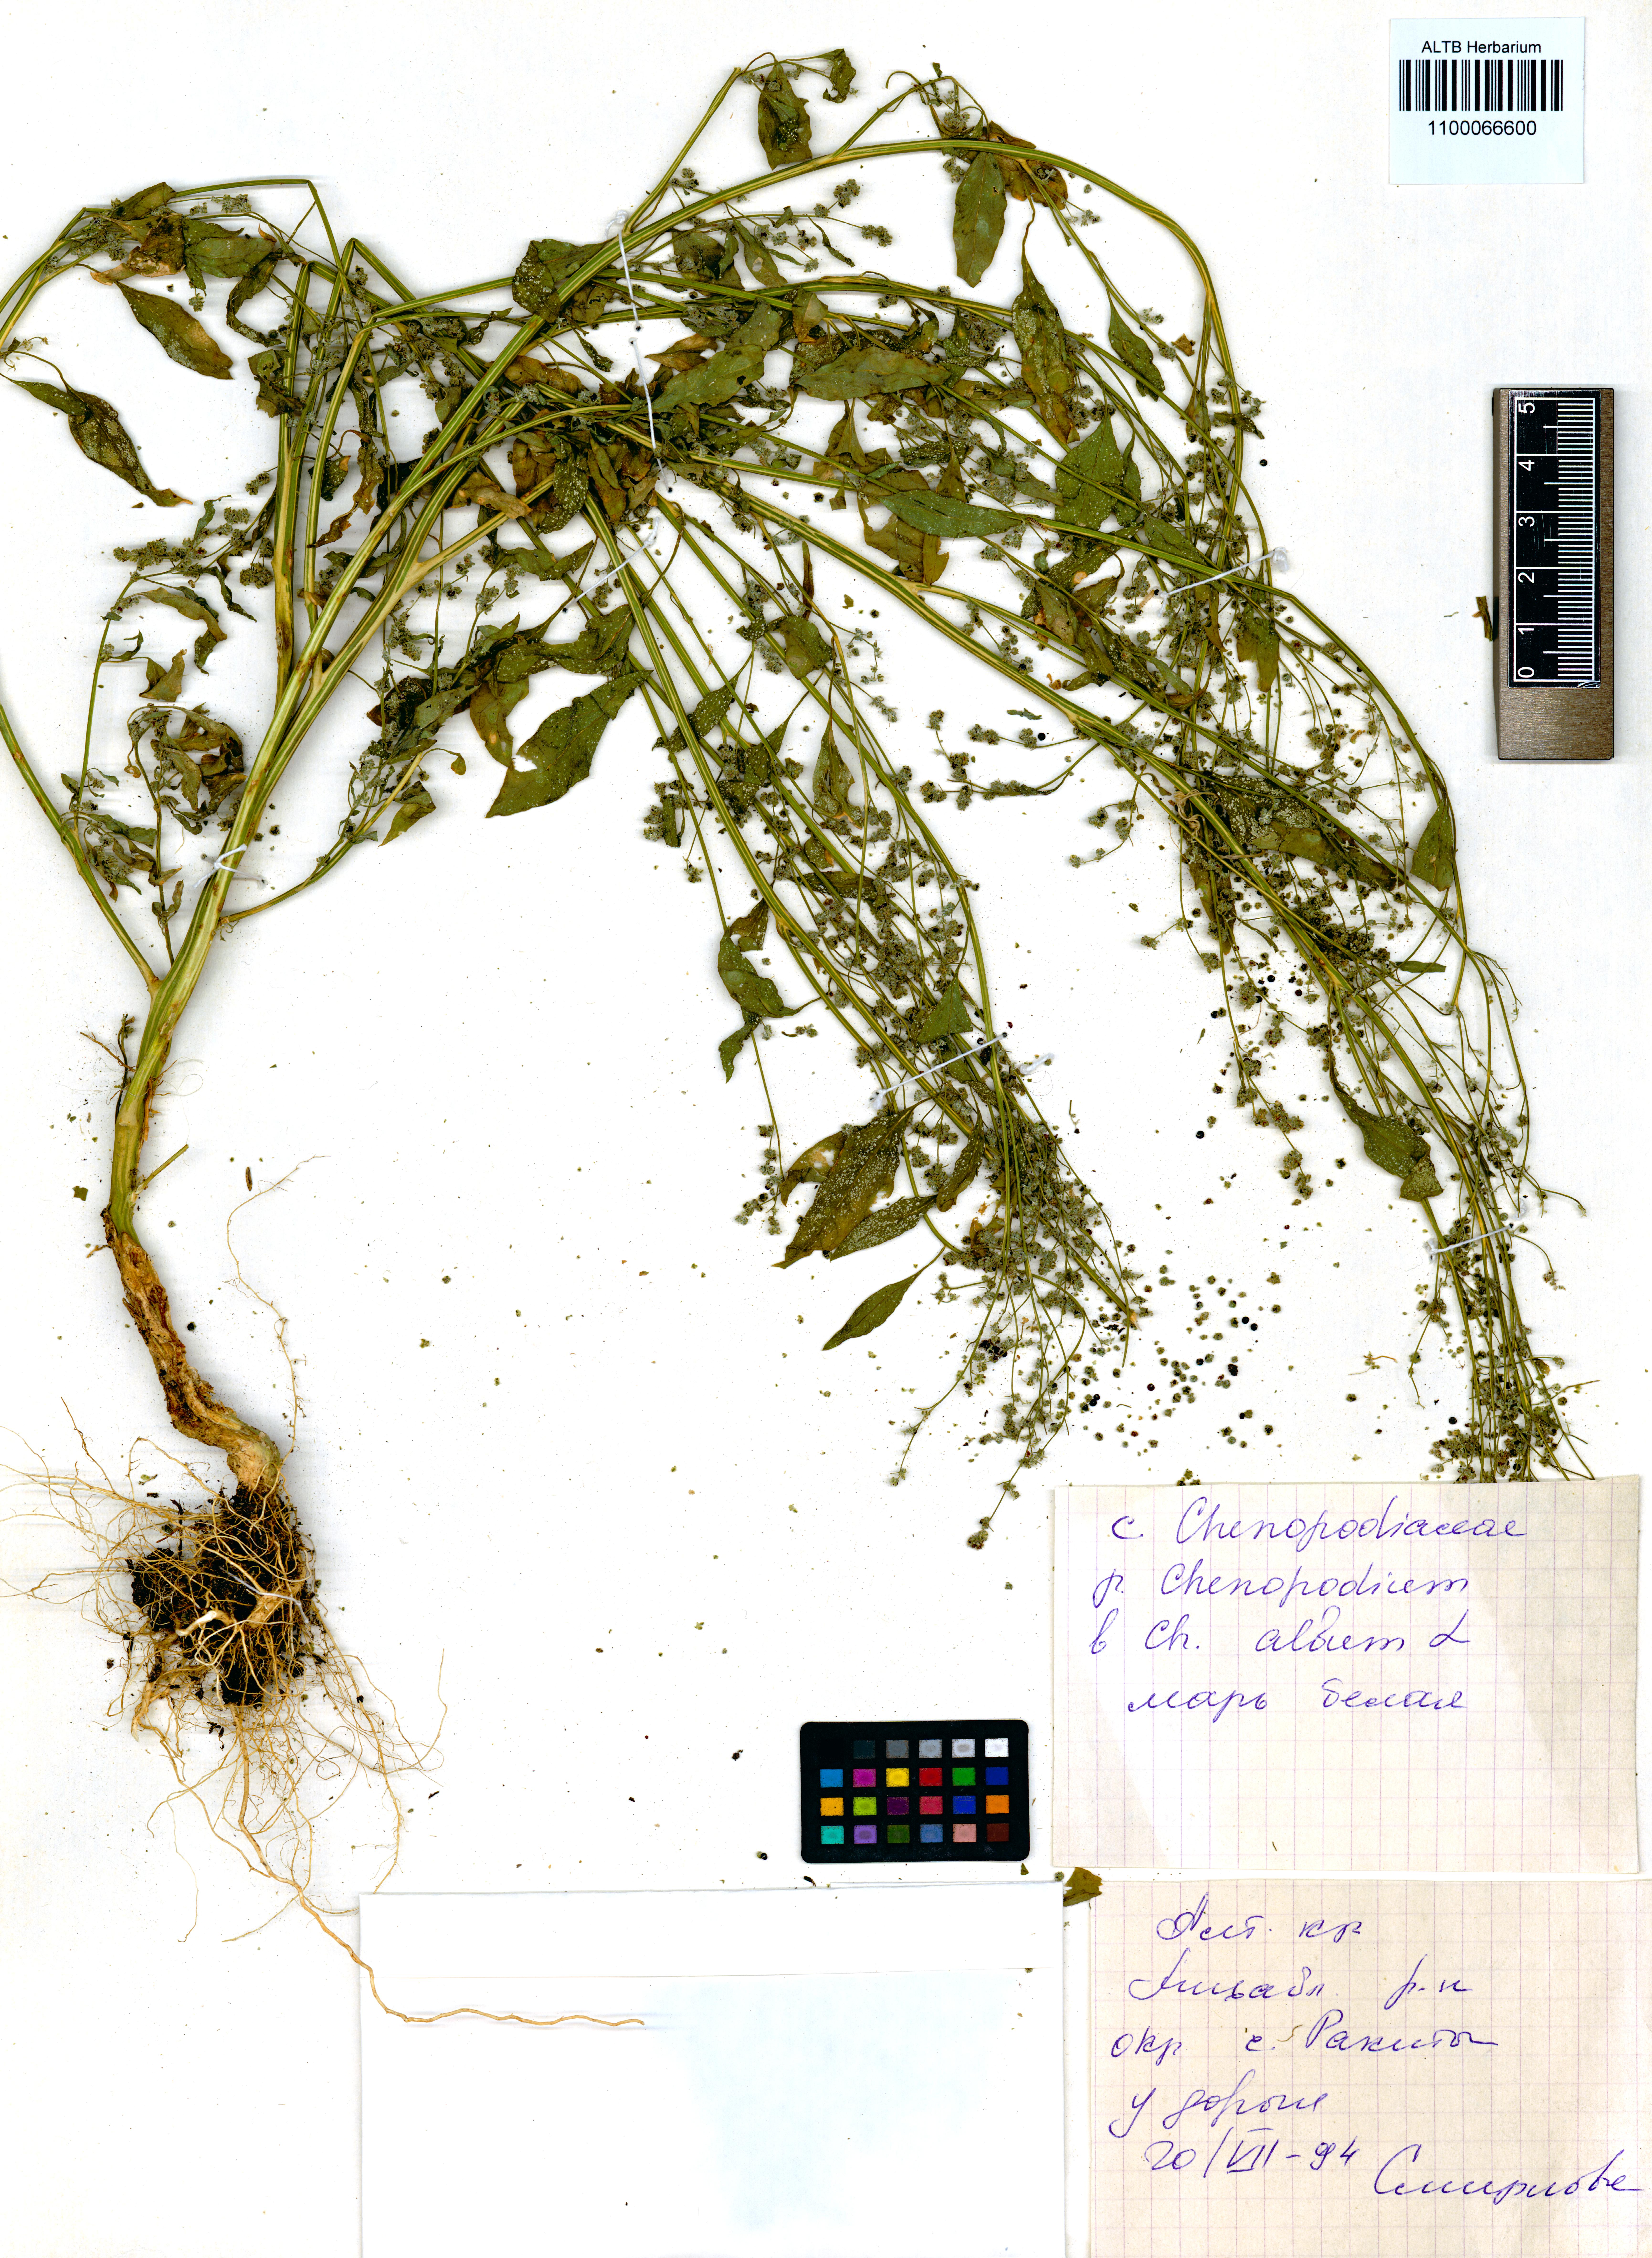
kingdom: Plantae
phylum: Tracheophyta
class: Magnoliopsida
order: Caryophyllales
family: Amaranthaceae
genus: Chenopodium
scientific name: Chenopodium album
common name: Fat-hen
